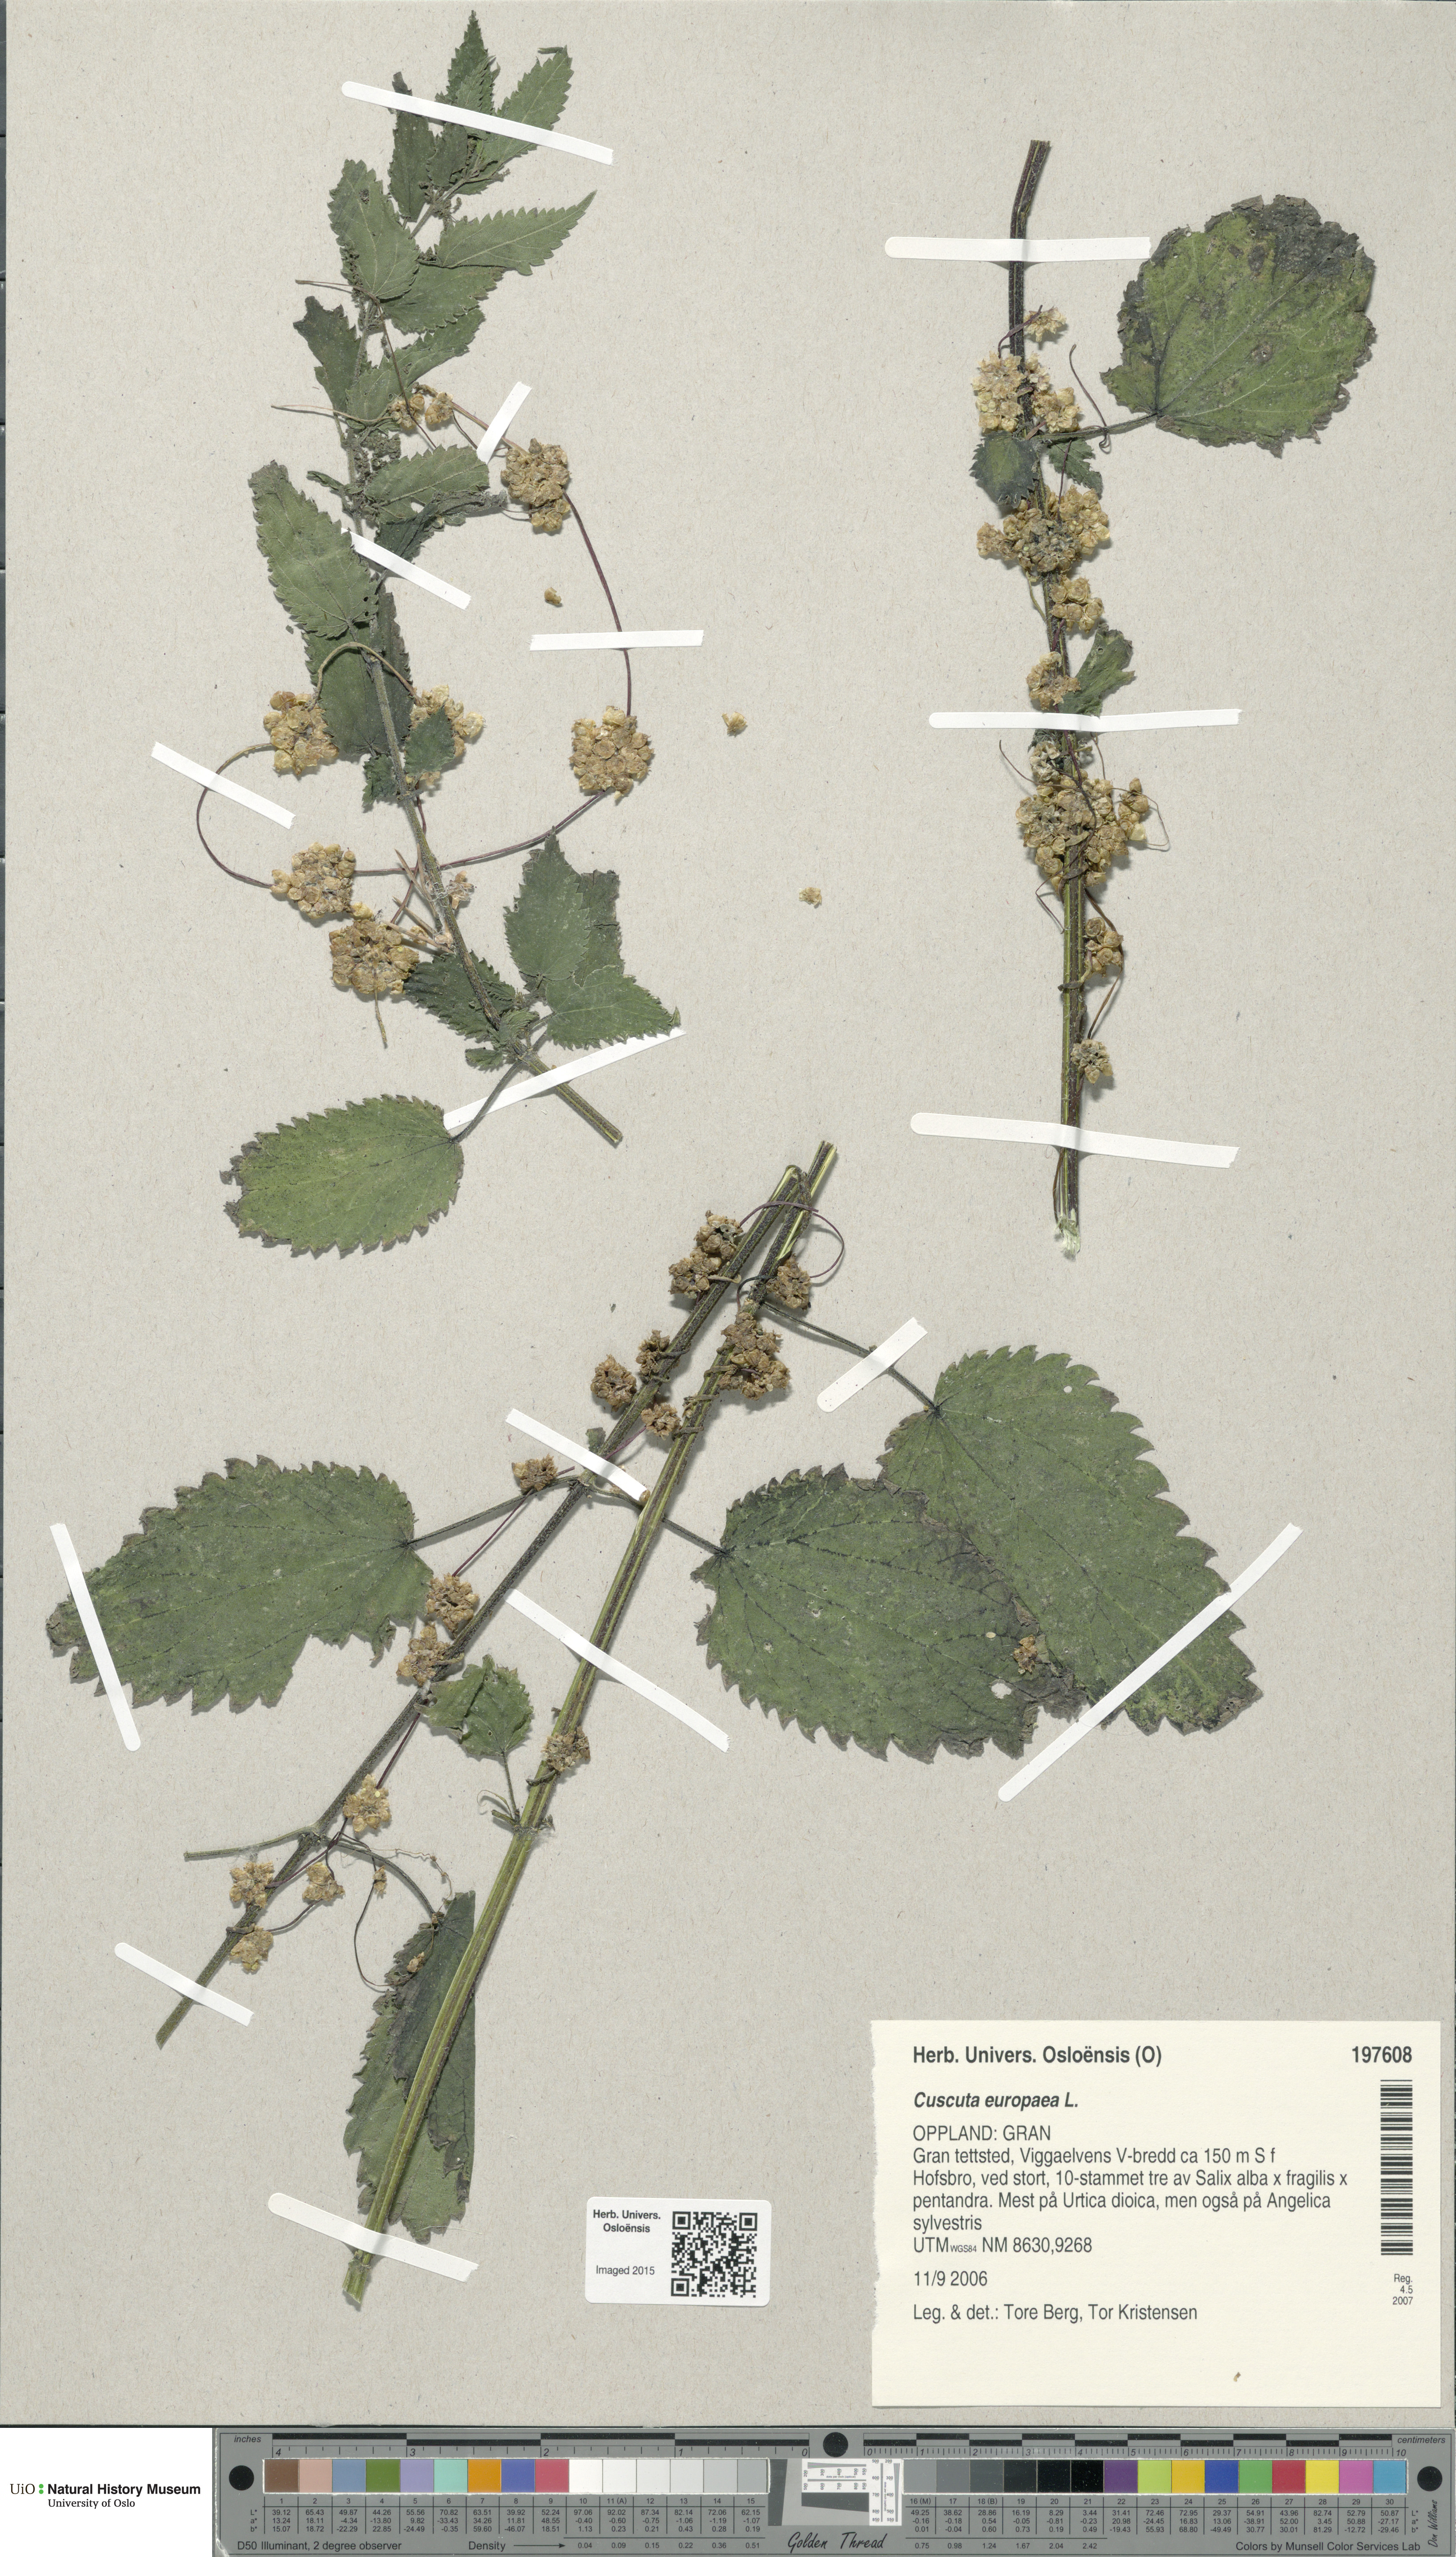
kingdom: Plantae
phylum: Tracheophyta
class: Magnoliopsida
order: Solanales
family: Convolvulaceae
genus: Cuscuta
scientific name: Cuscuta europaea
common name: Greater dodder
